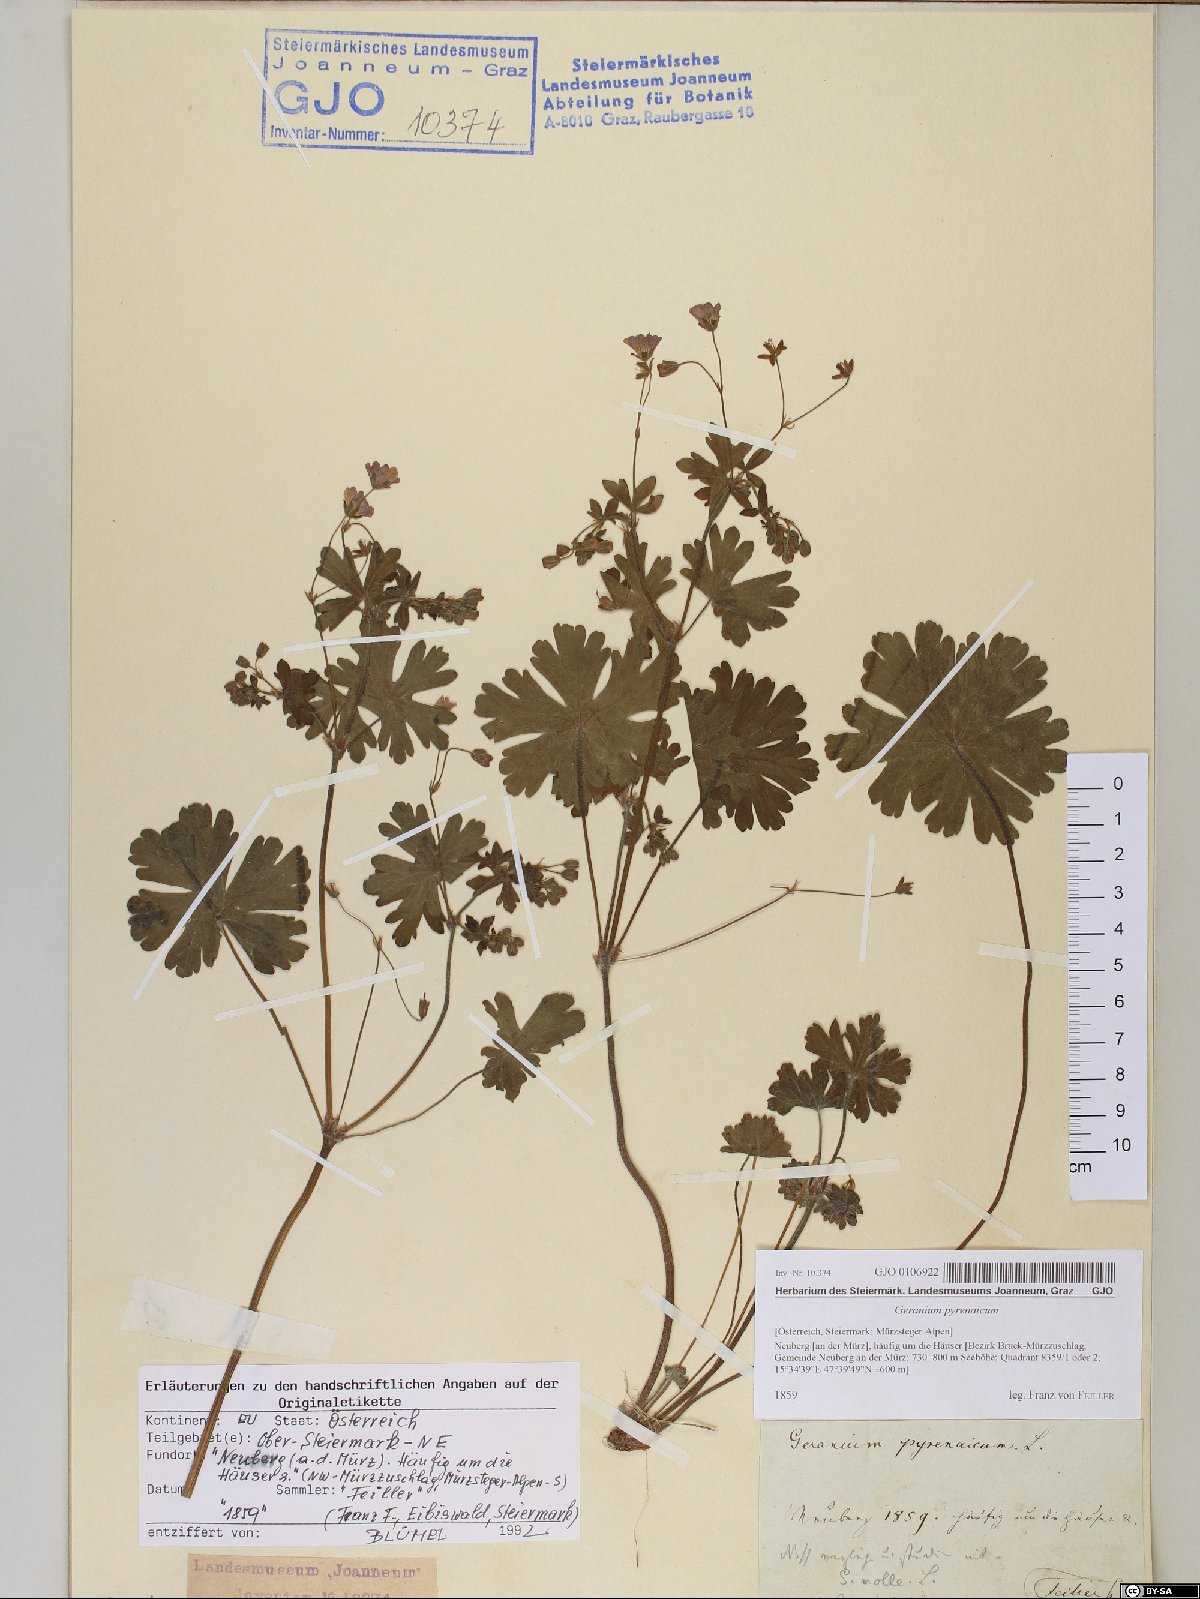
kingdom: Plantae
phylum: Tracheophyta
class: Magnoliopsida
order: Geraniales
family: Geraniaceae
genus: Geranium
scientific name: Geranium pyrenaicum
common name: Hedgerow crane's-bill
